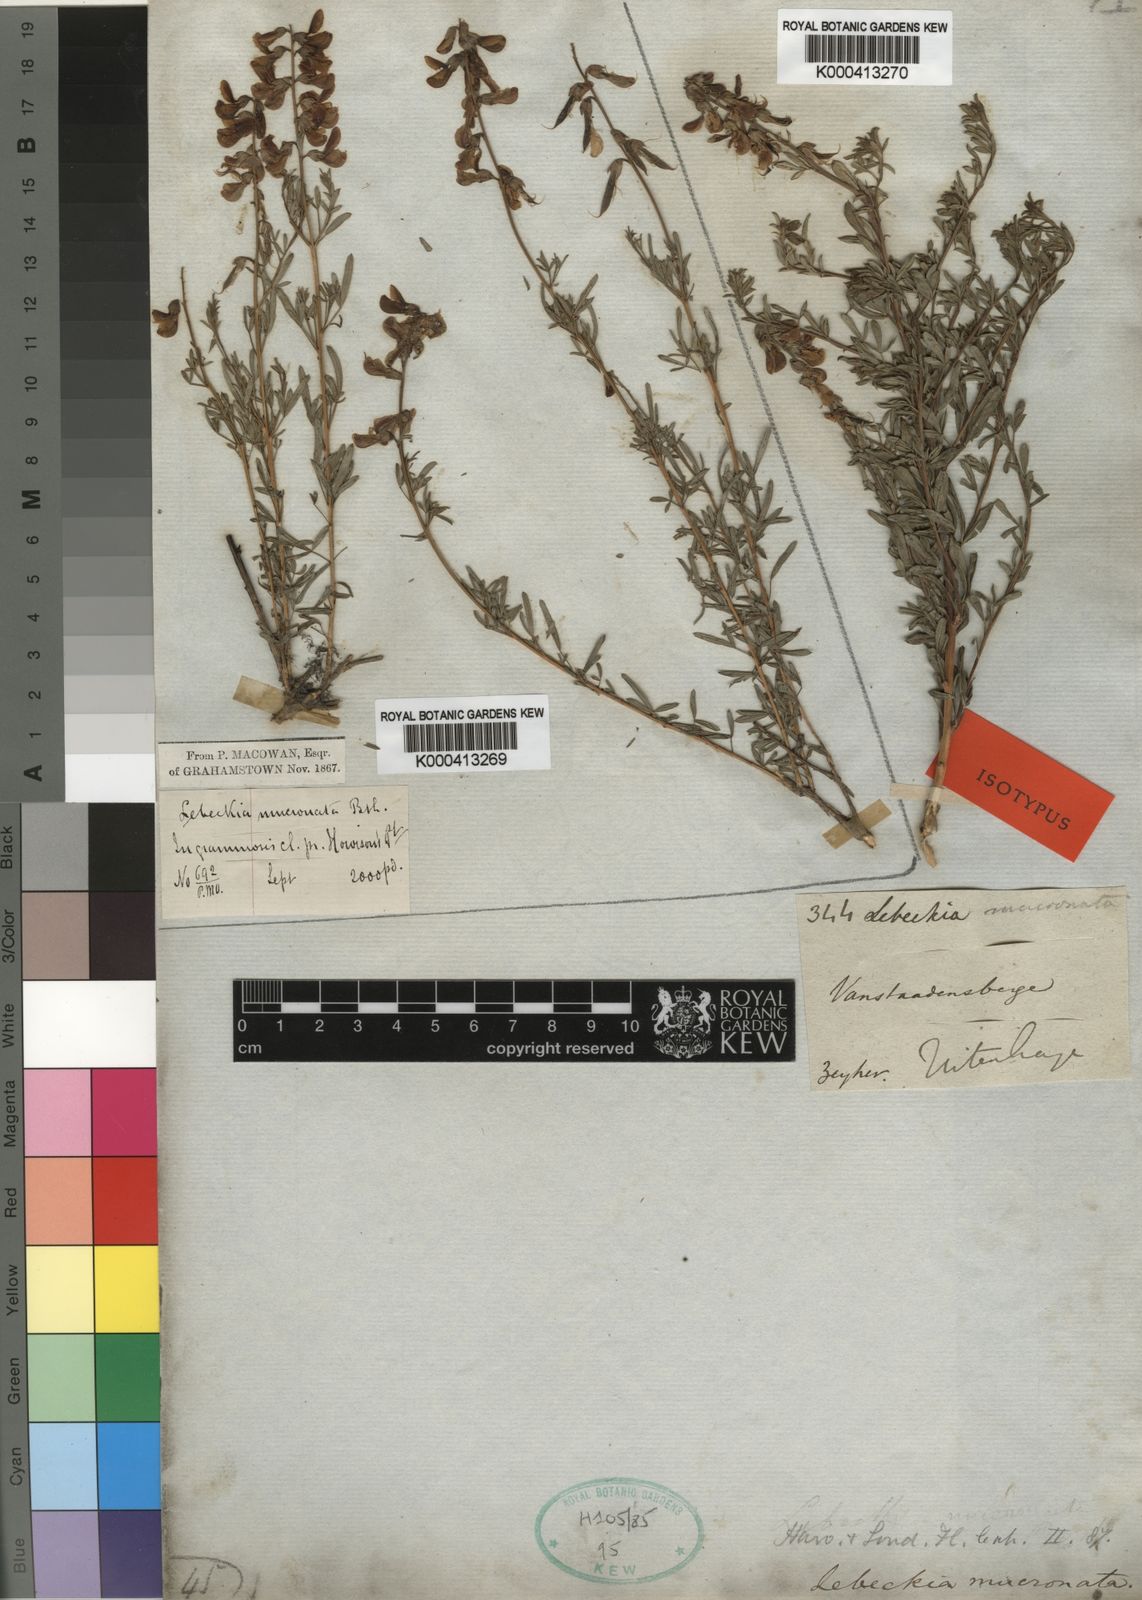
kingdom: Plantae
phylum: Tracheophyta
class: Magnoliopsida
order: Fabales
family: Fabaceae
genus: Wiborgiella
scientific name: Wiborgiella mucronata
